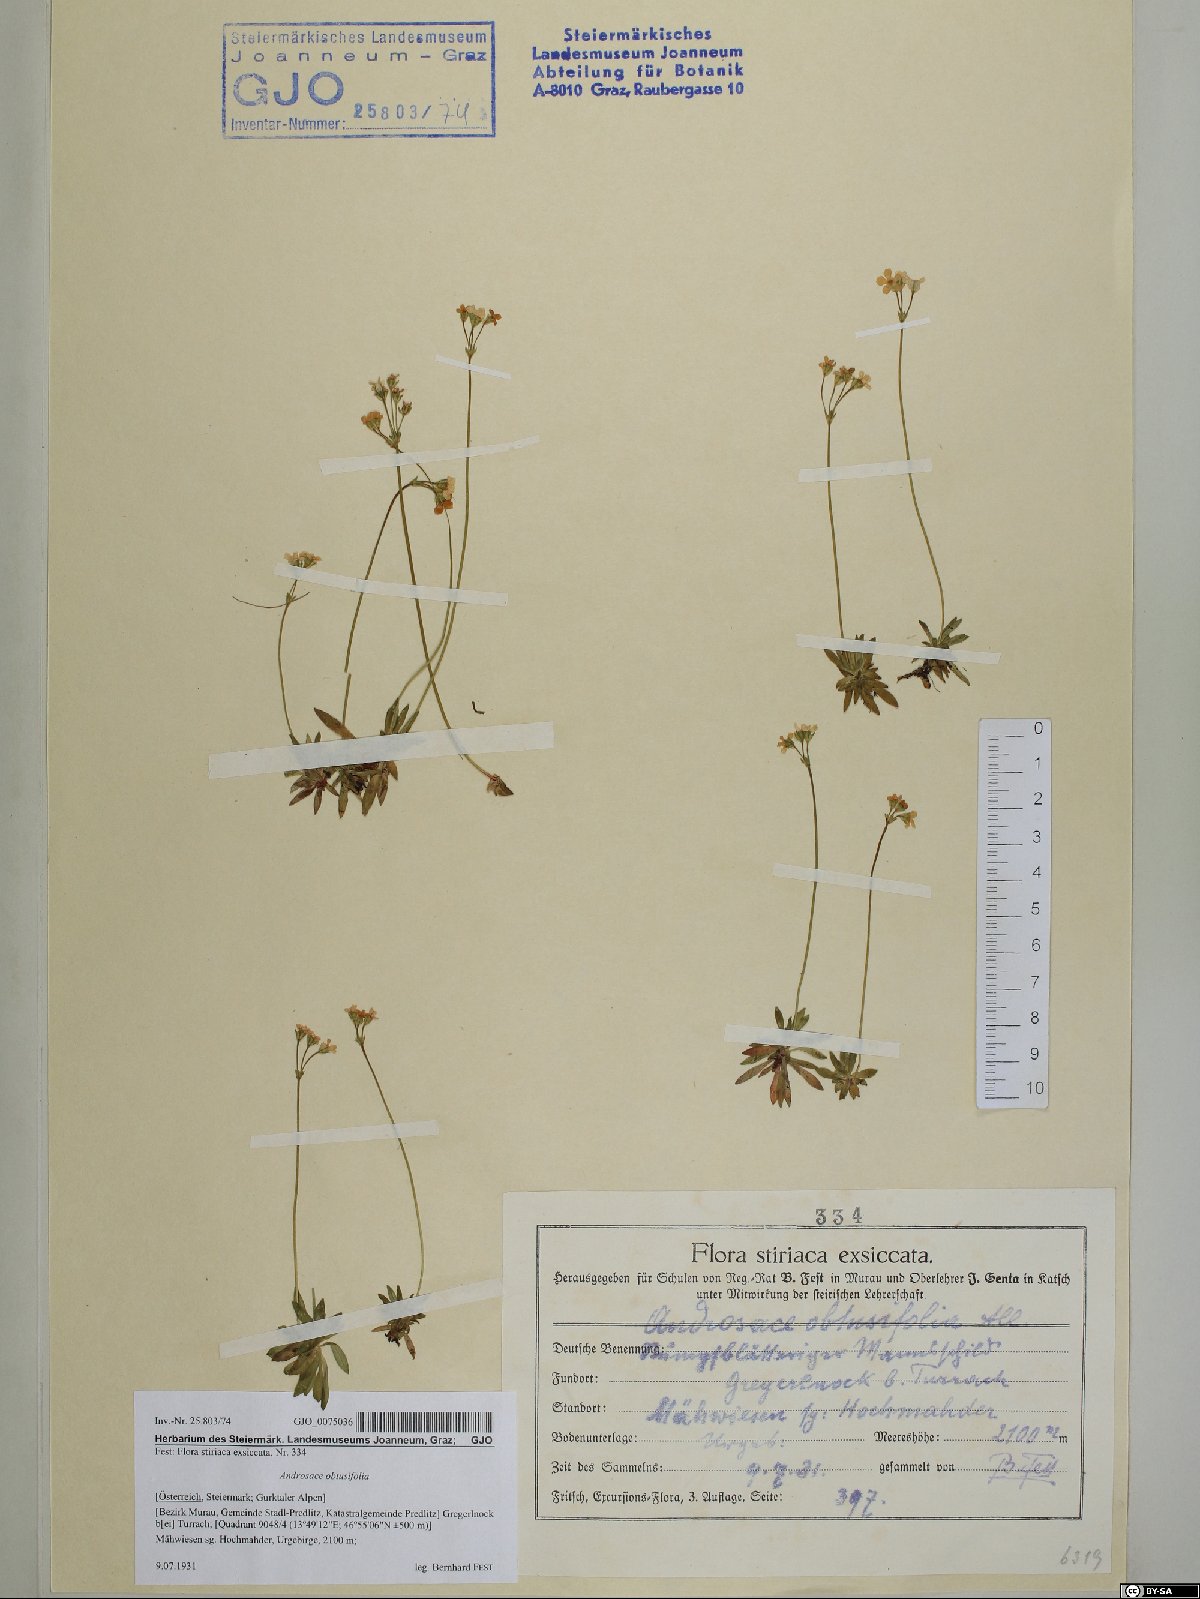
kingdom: Plantae
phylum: Tracheophyta
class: Magnoliopsida
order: Ericales
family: Primulaceae
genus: Androsace
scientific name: Androsace obtusifolia
